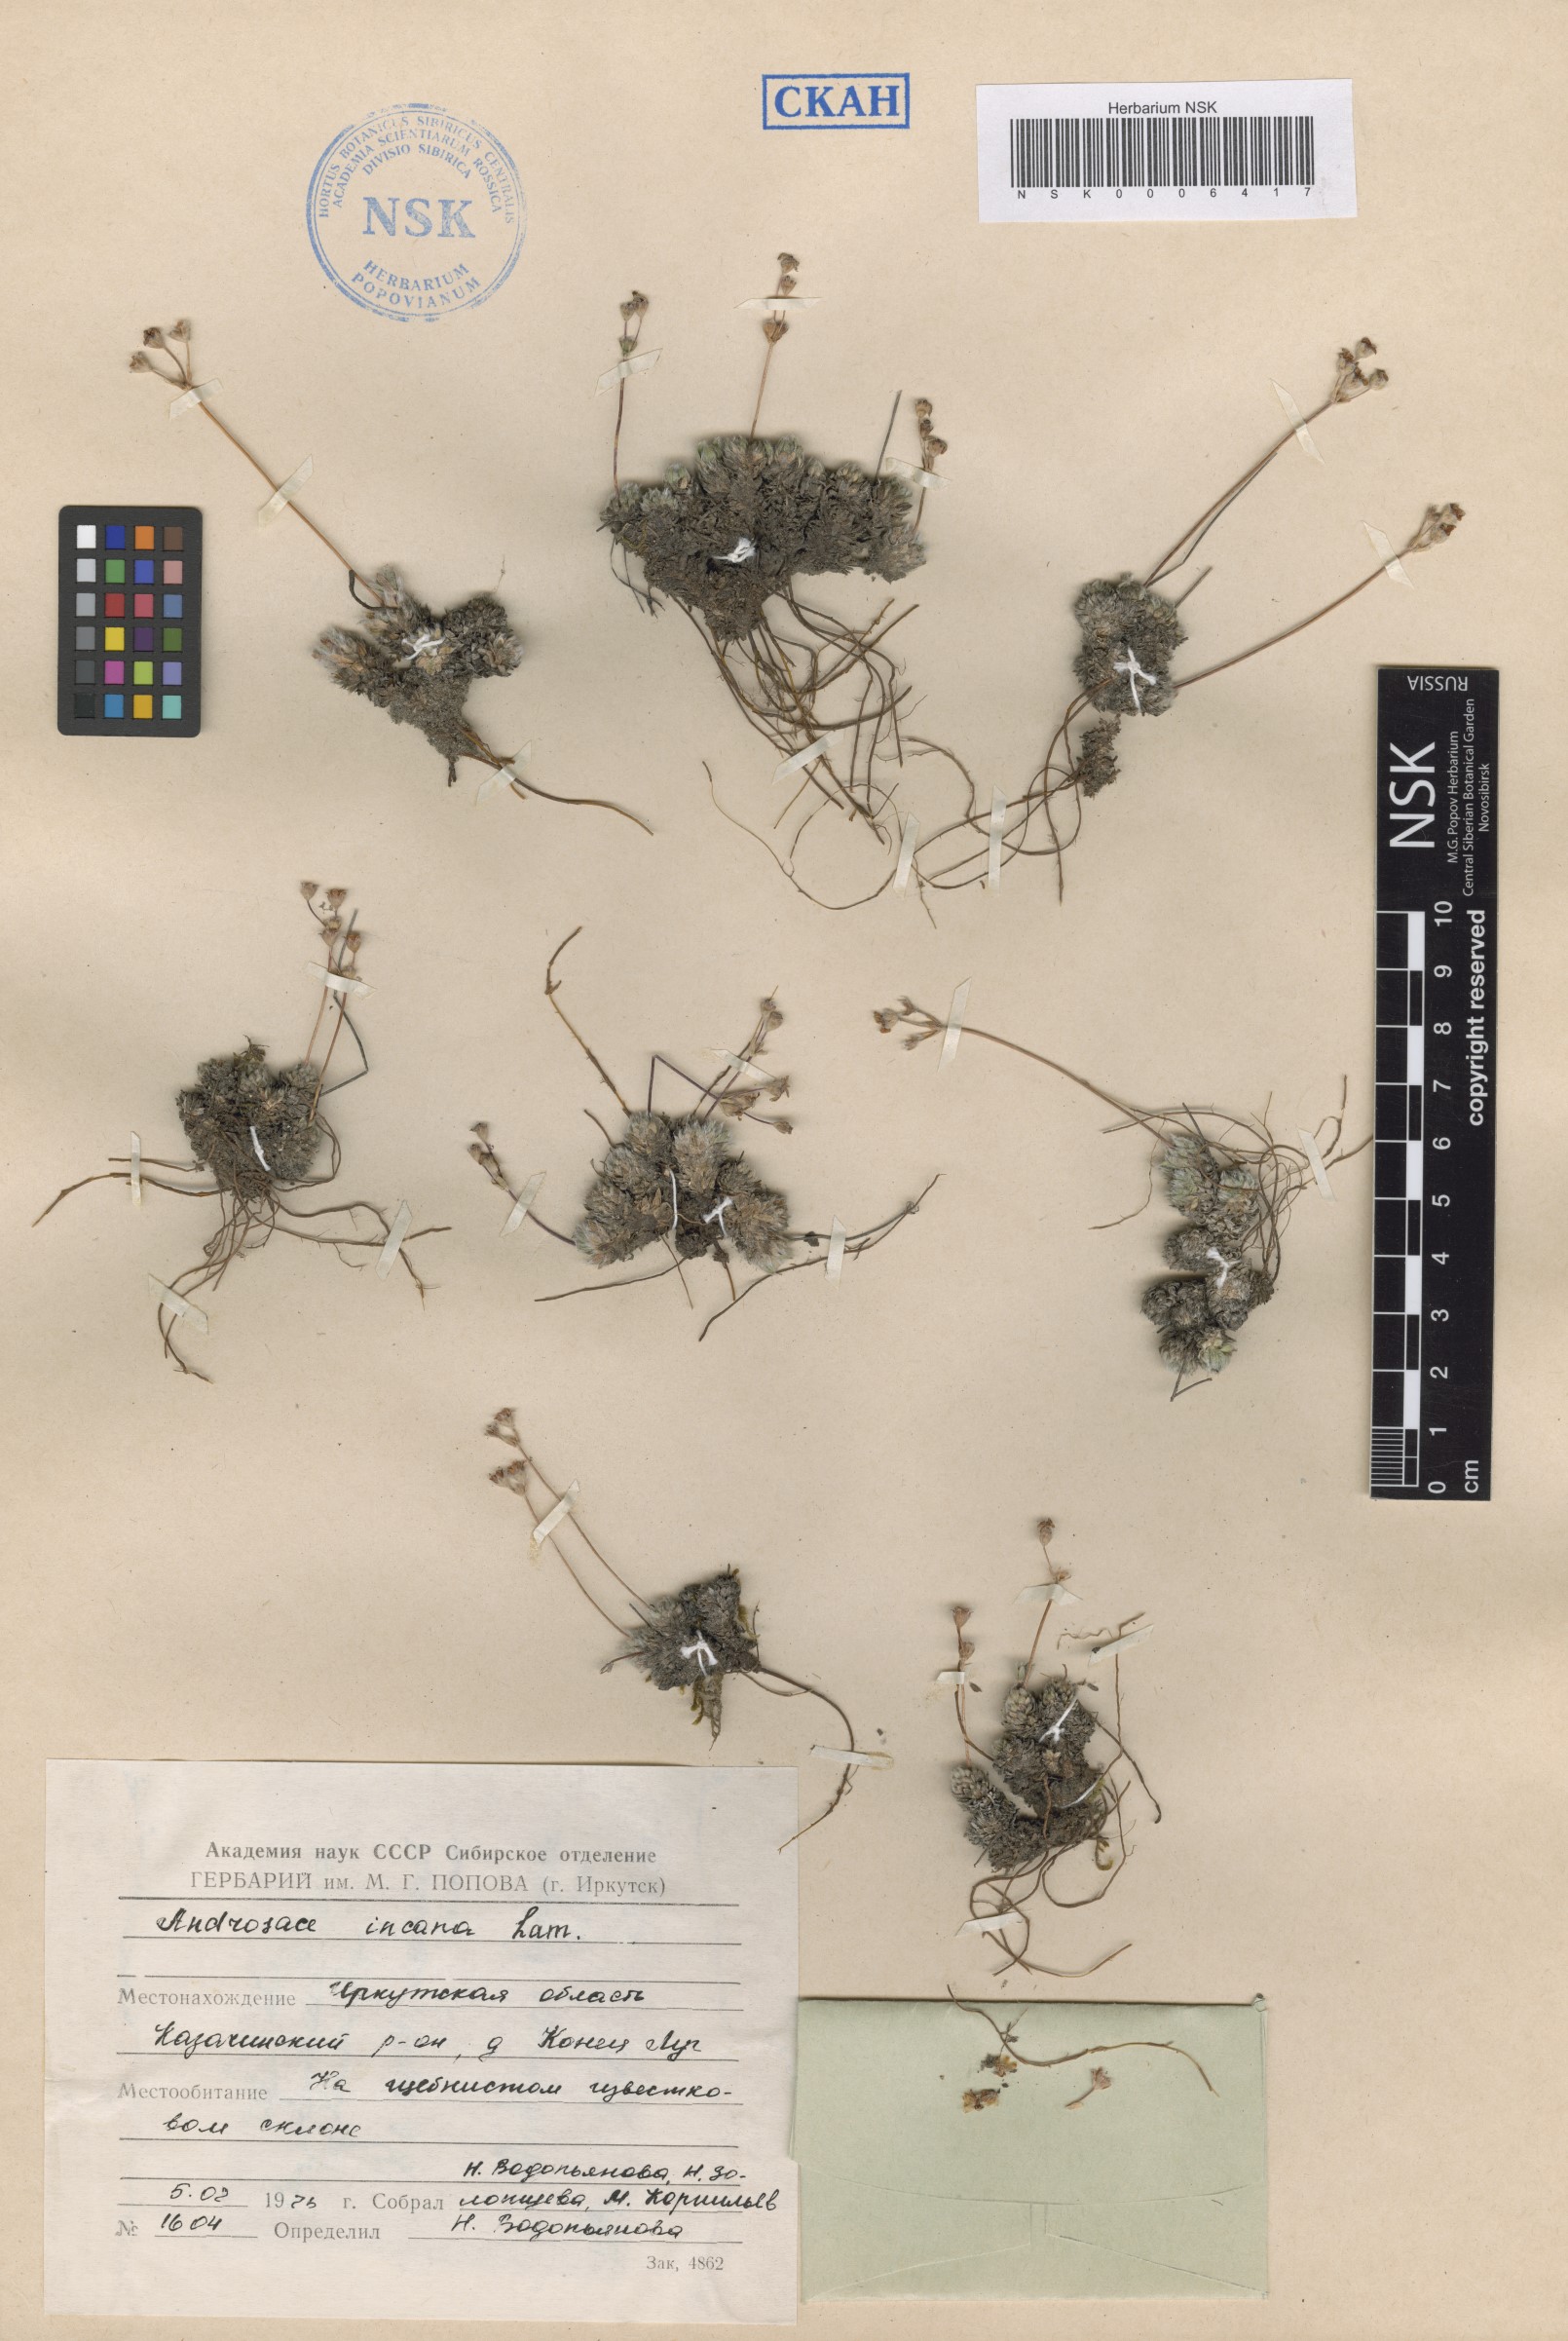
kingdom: Plantae
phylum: Tracheophyta
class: Magnoliopsida
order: Ericales
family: Primulaceae
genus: Androsace
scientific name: Androsace incana
